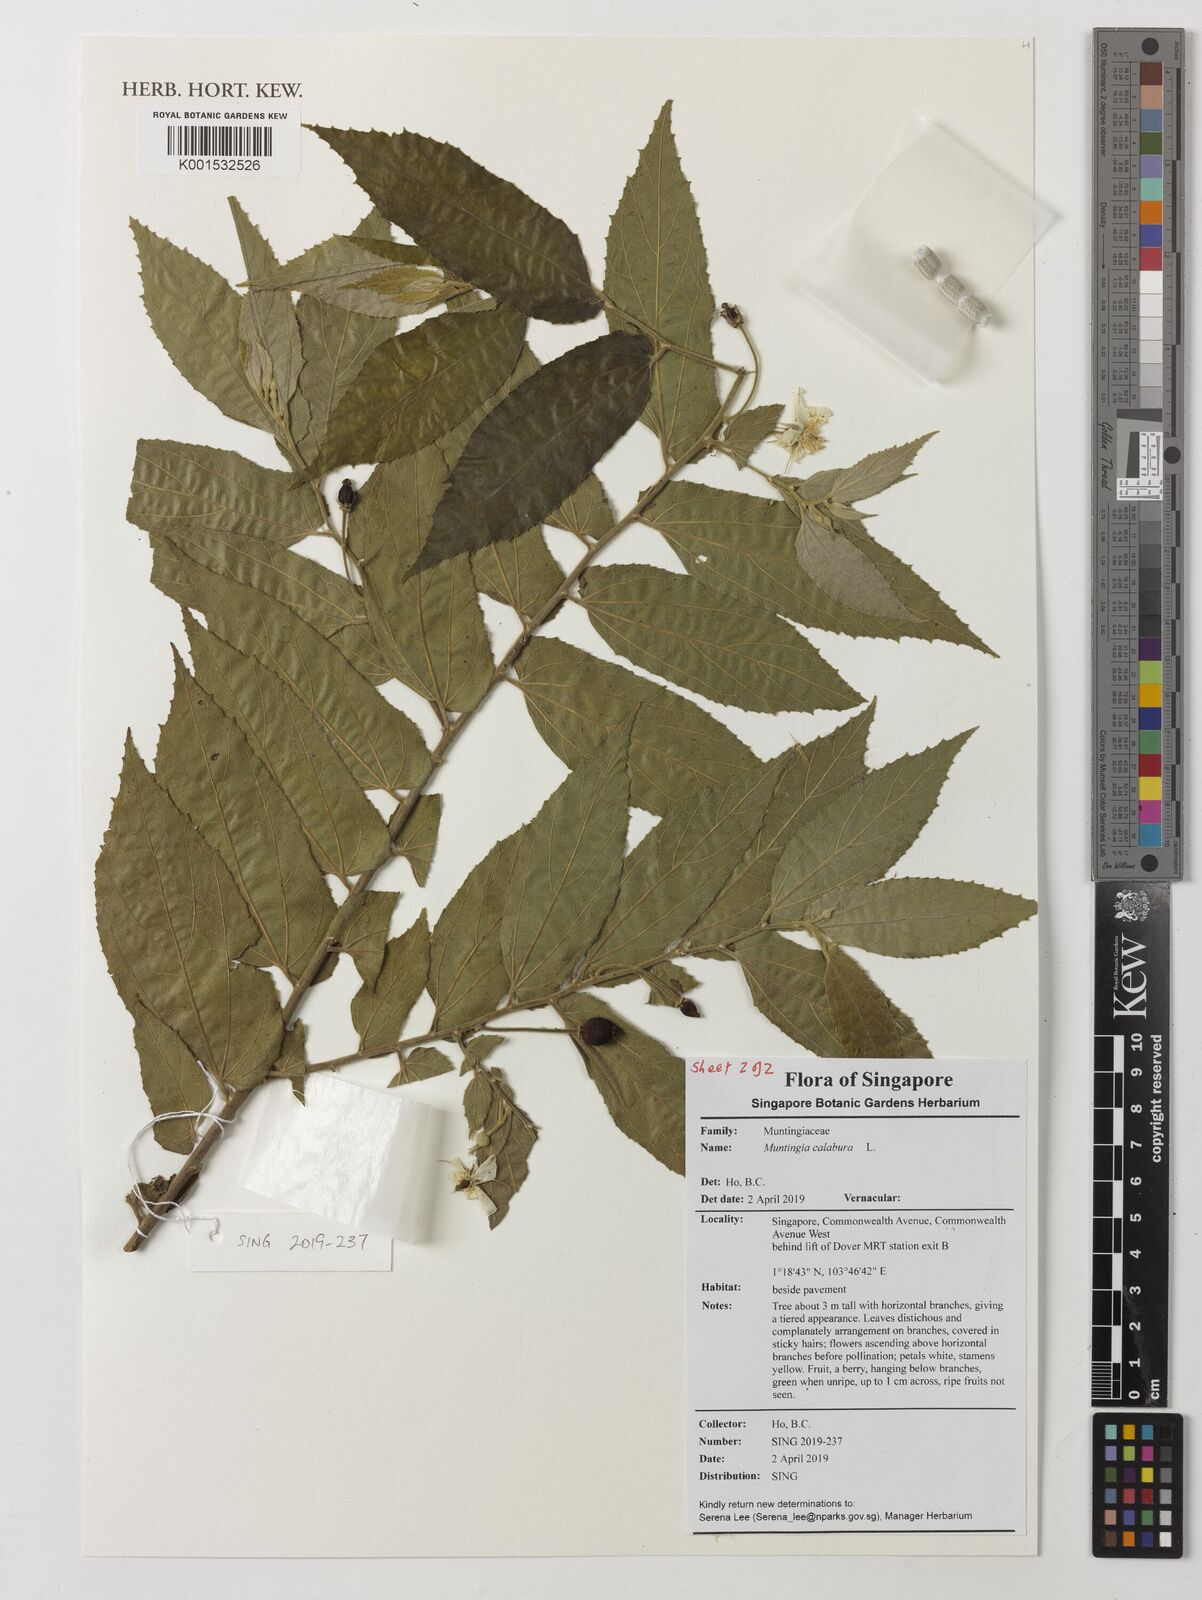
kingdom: Plantae
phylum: Tracheophyta
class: Magnoliopsida
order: Malvales
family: Muntingiaceae
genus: Muntingia
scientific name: Muntingia calabura
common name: Strawberrytree
